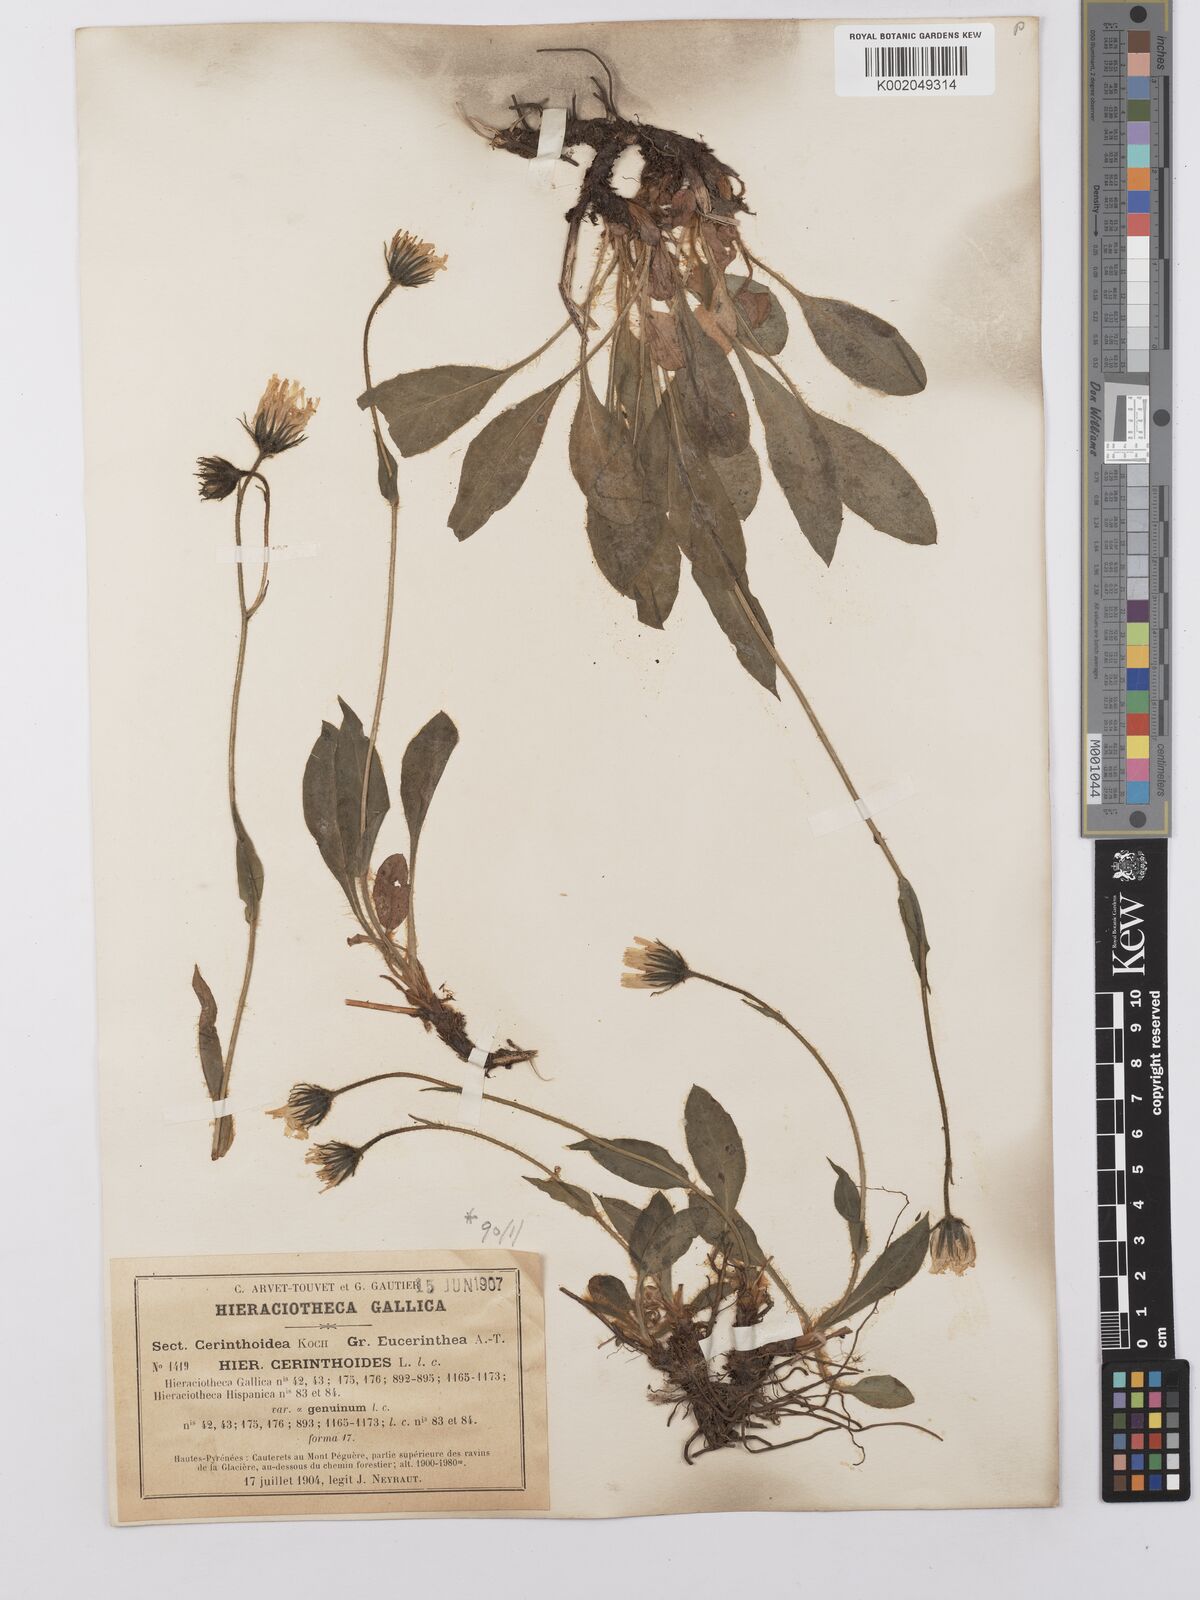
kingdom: Plantae
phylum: Tracheophyta
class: Magnoliopsida
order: Asterales
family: Asteraceae
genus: Hieracium
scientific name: Hieracium cerinthoides
